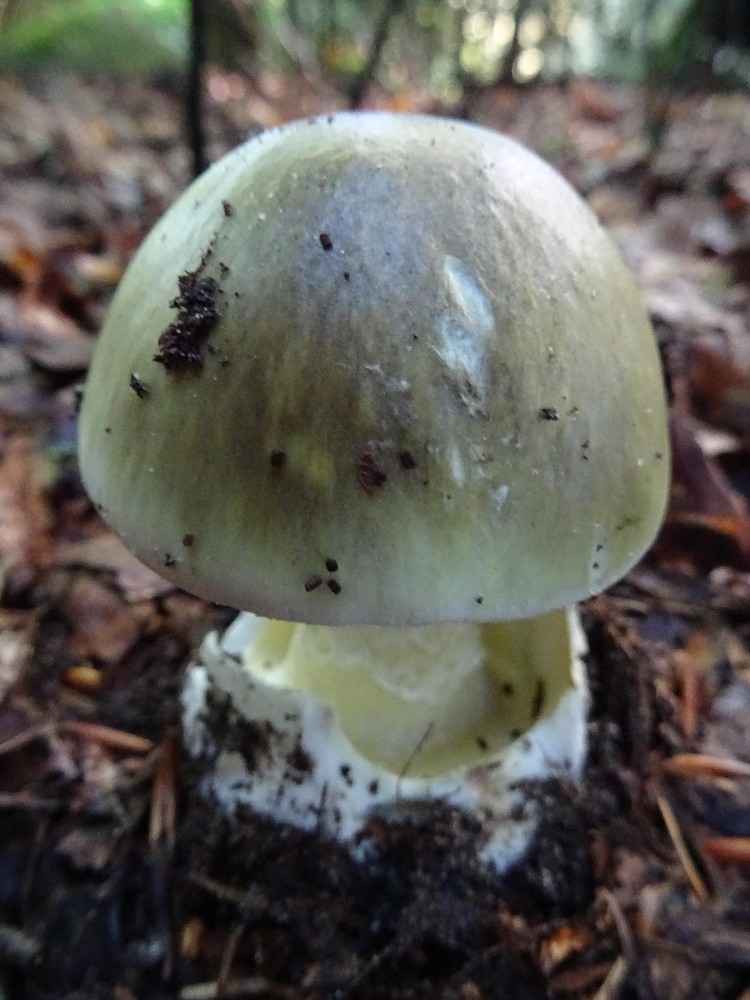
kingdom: Fungi
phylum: Basidiomycota
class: Agaricomycetes
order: Agaricales
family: Amanitaceae
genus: Amanita
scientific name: Amanita phalloides
